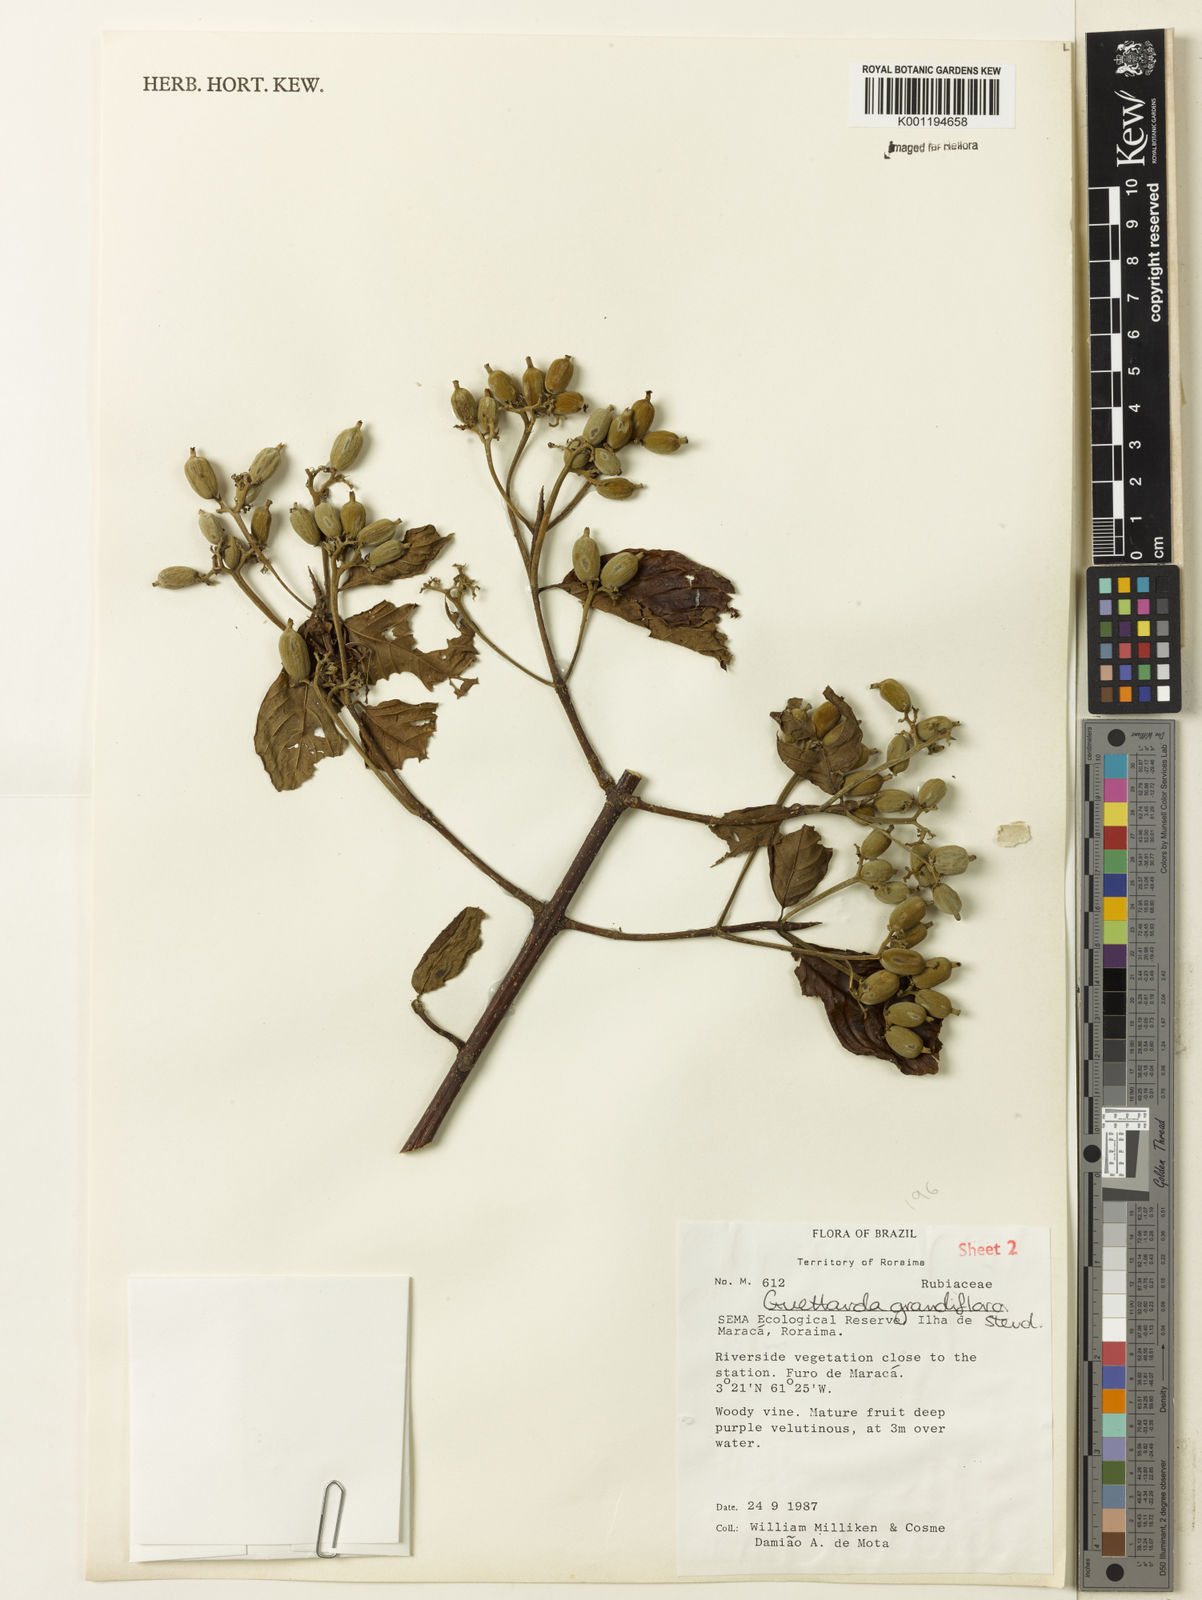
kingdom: Plantae
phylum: Tracheophyta
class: Magnoliopsida
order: Gentianales
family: Rubiaceae
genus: Guettarda
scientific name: Guettarda aromatica
